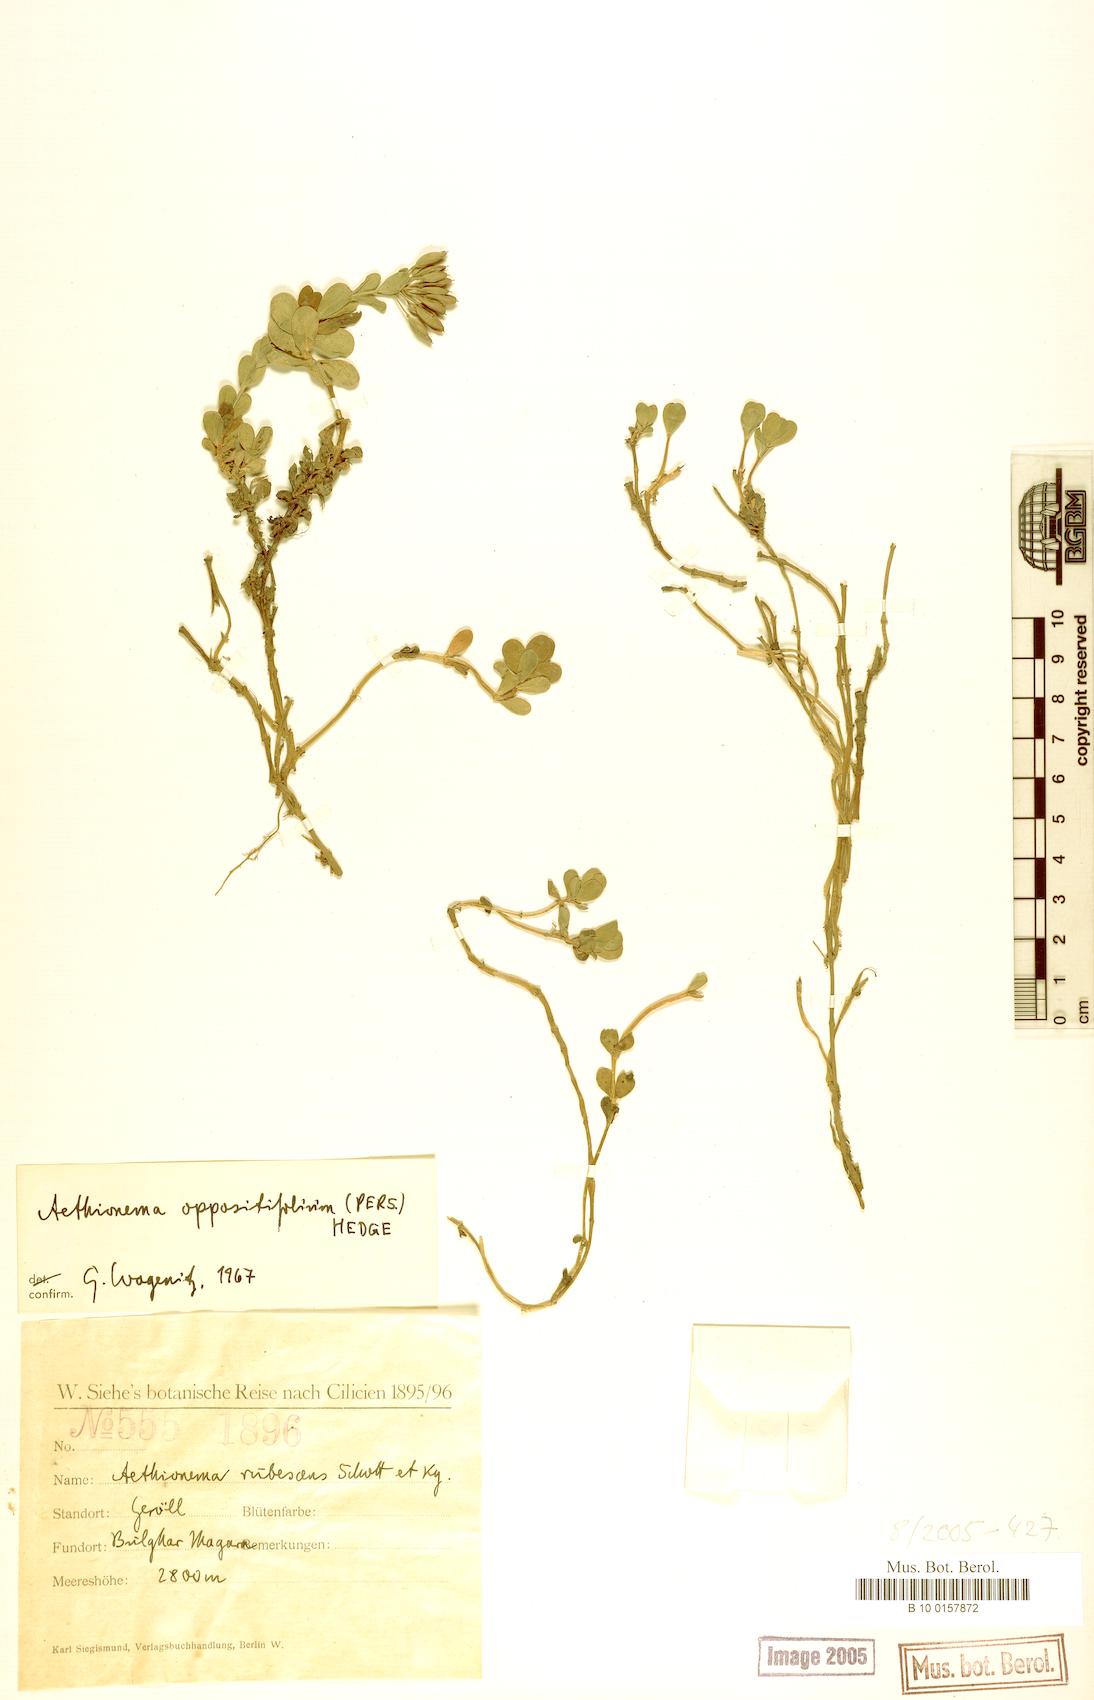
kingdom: Plantae
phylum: Tracheophyta
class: Magnoliopsida
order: Brassicales
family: Brassicaceae
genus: Noccaea
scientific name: Noccaea oppositifolia
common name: Twin-leaf stone-cress
